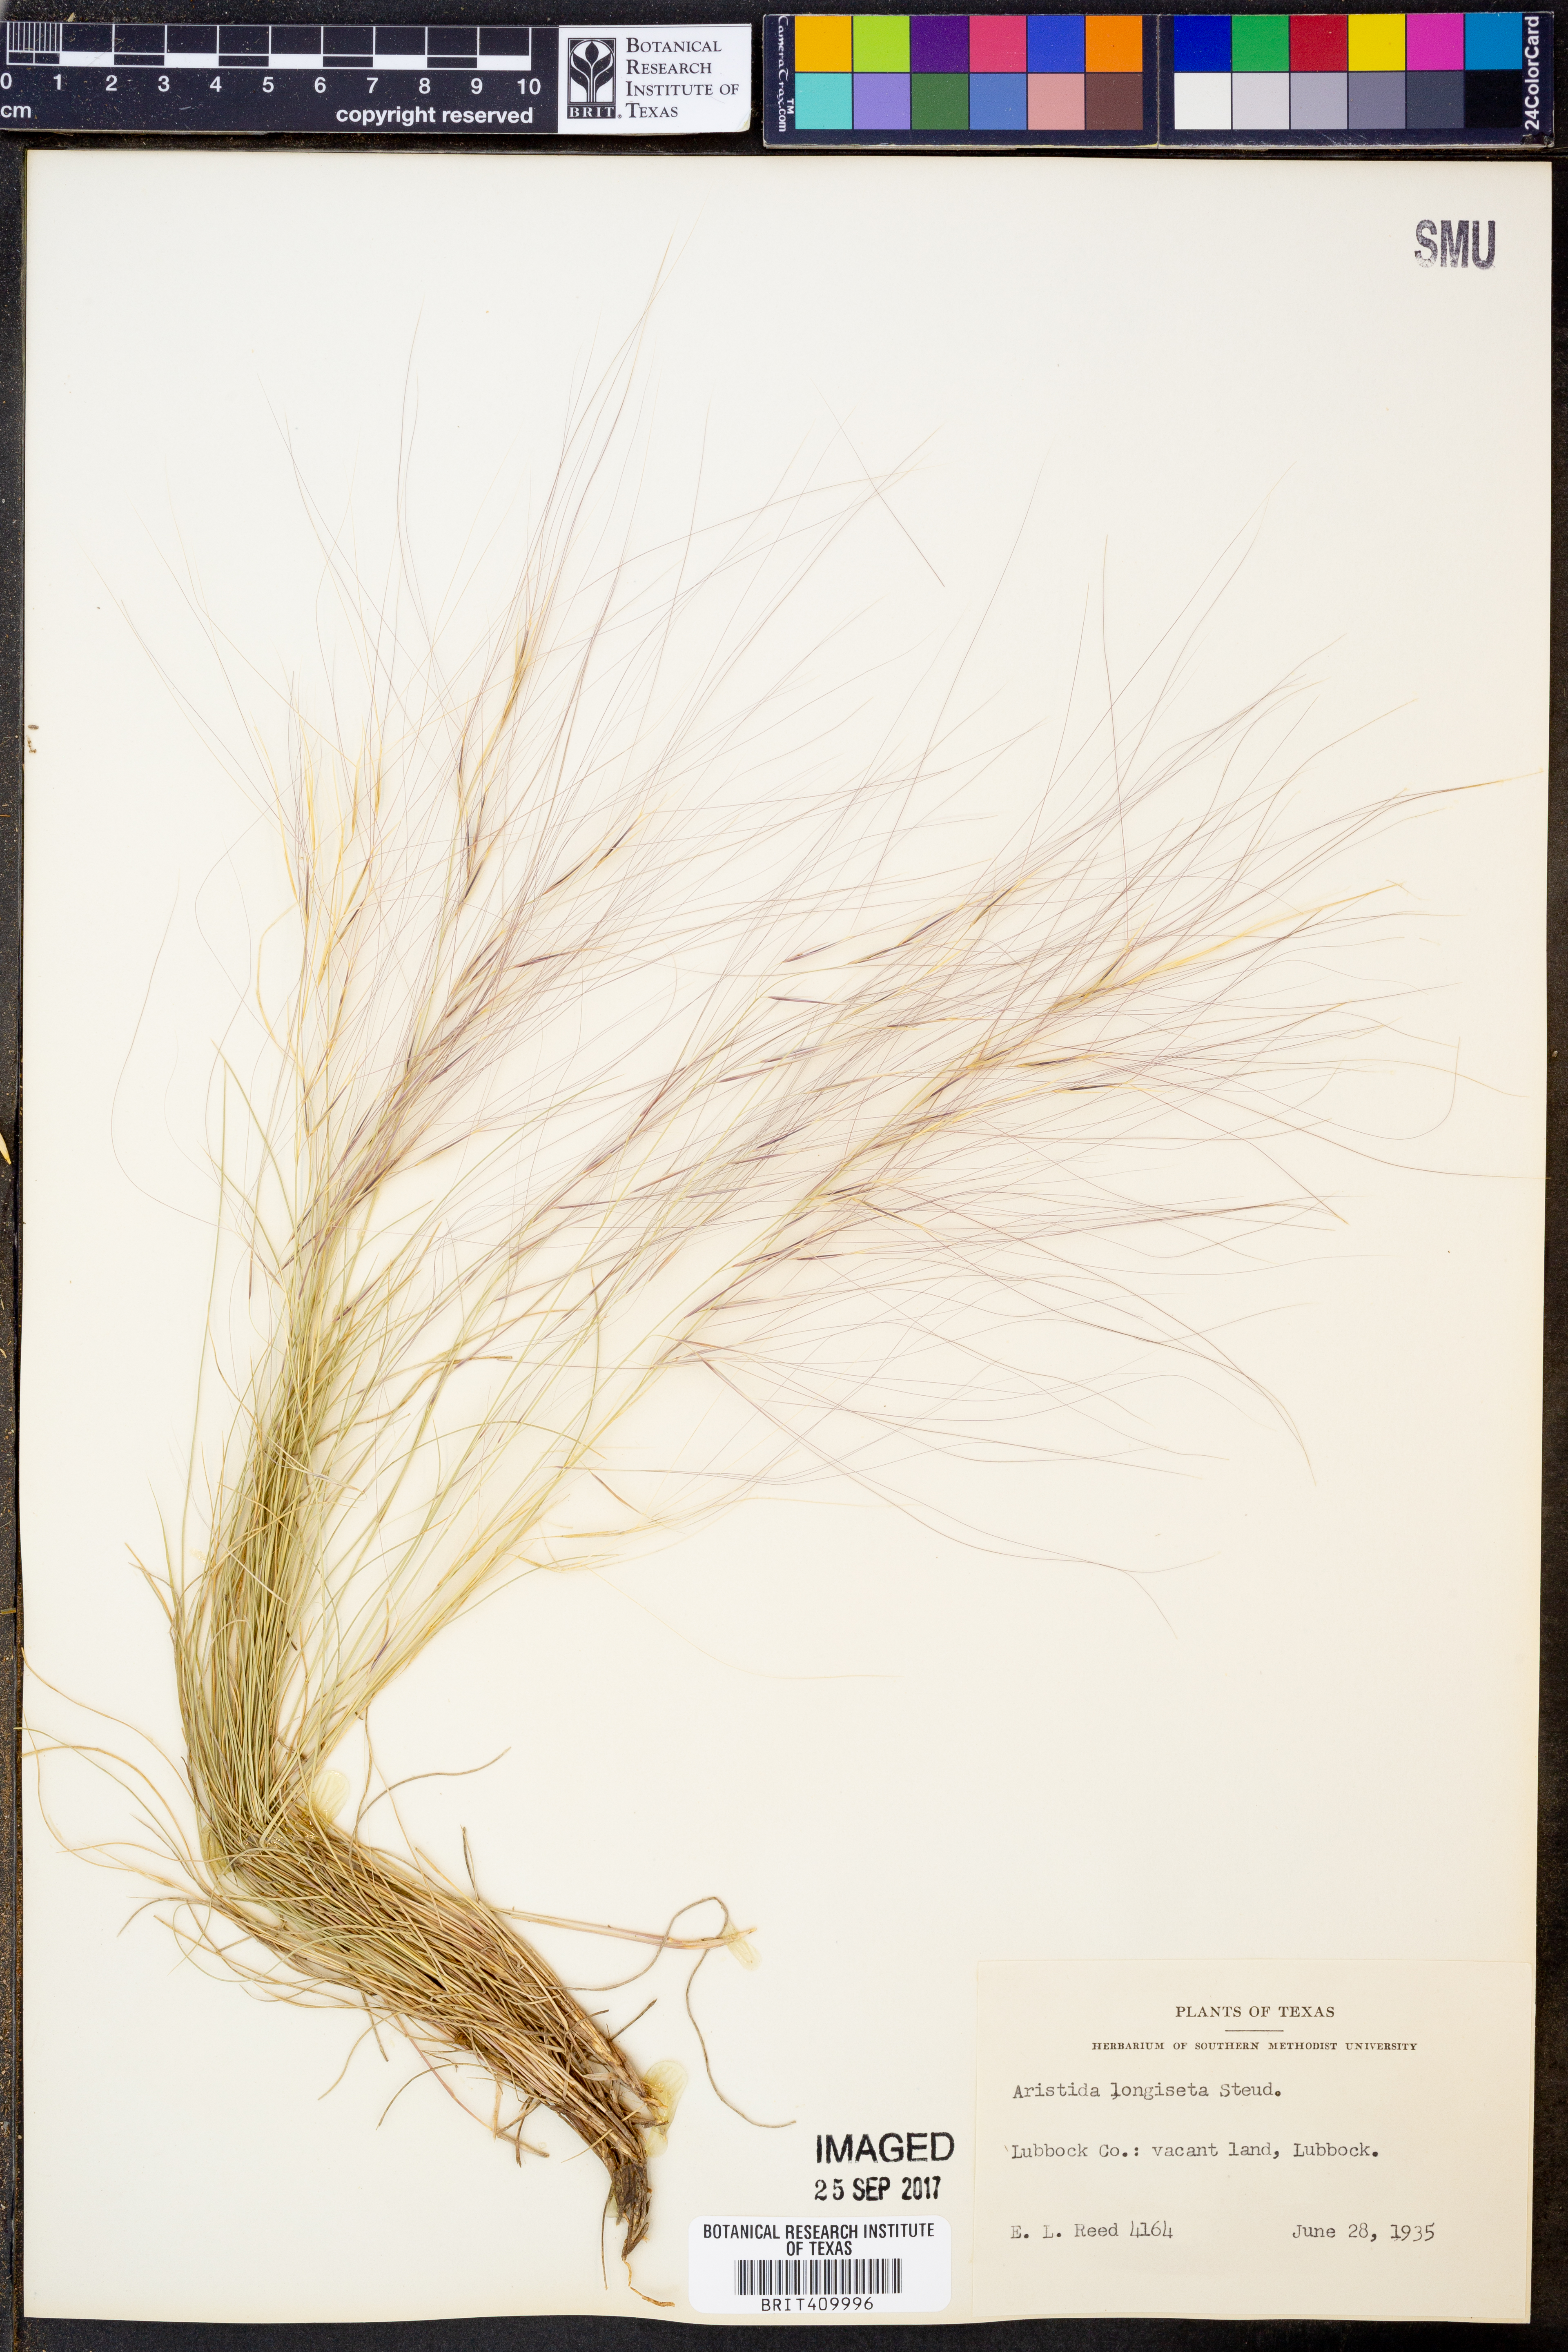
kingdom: Plantae
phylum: Tracheophyta
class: Liliopsida
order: Poales
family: Poaceae
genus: Aristida
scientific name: Aristida longiseta
